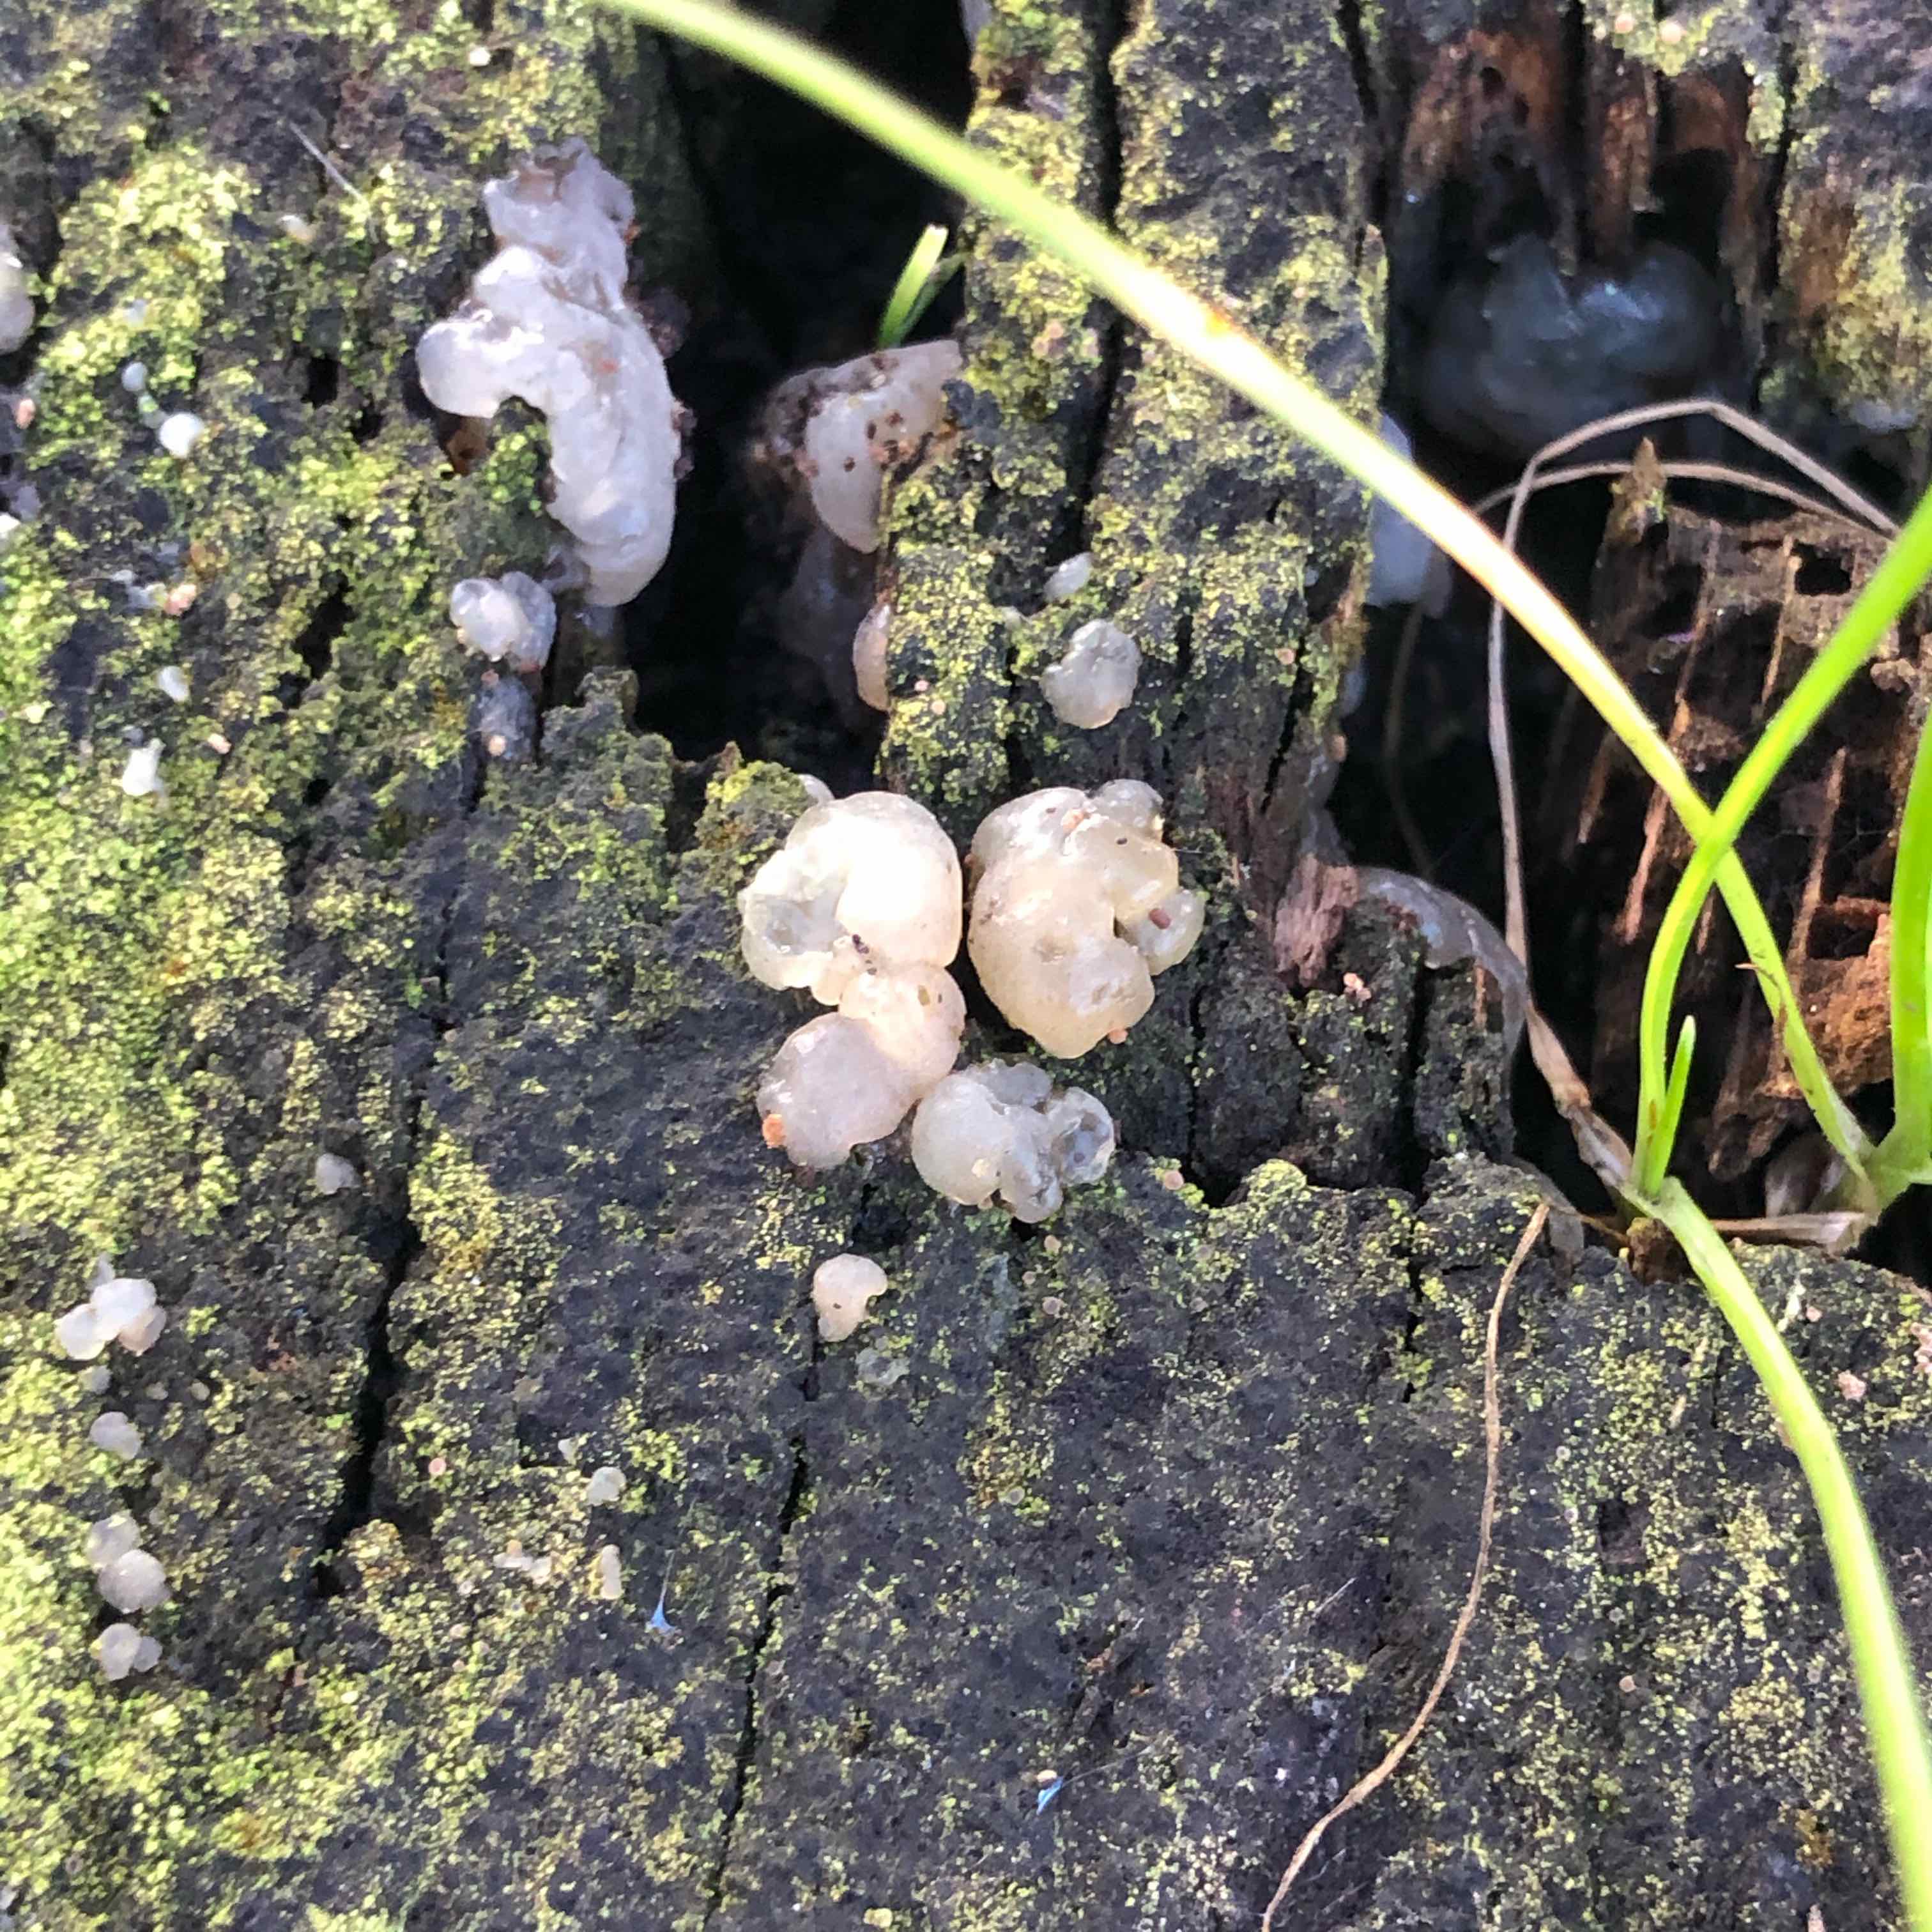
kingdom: Fungi
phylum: Basidiomycota
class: Agaricomycetes
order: Auriculariales
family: Hyaloriaceae
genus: Myxarium
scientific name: Myxarium nucleatum
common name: klar bævretop
